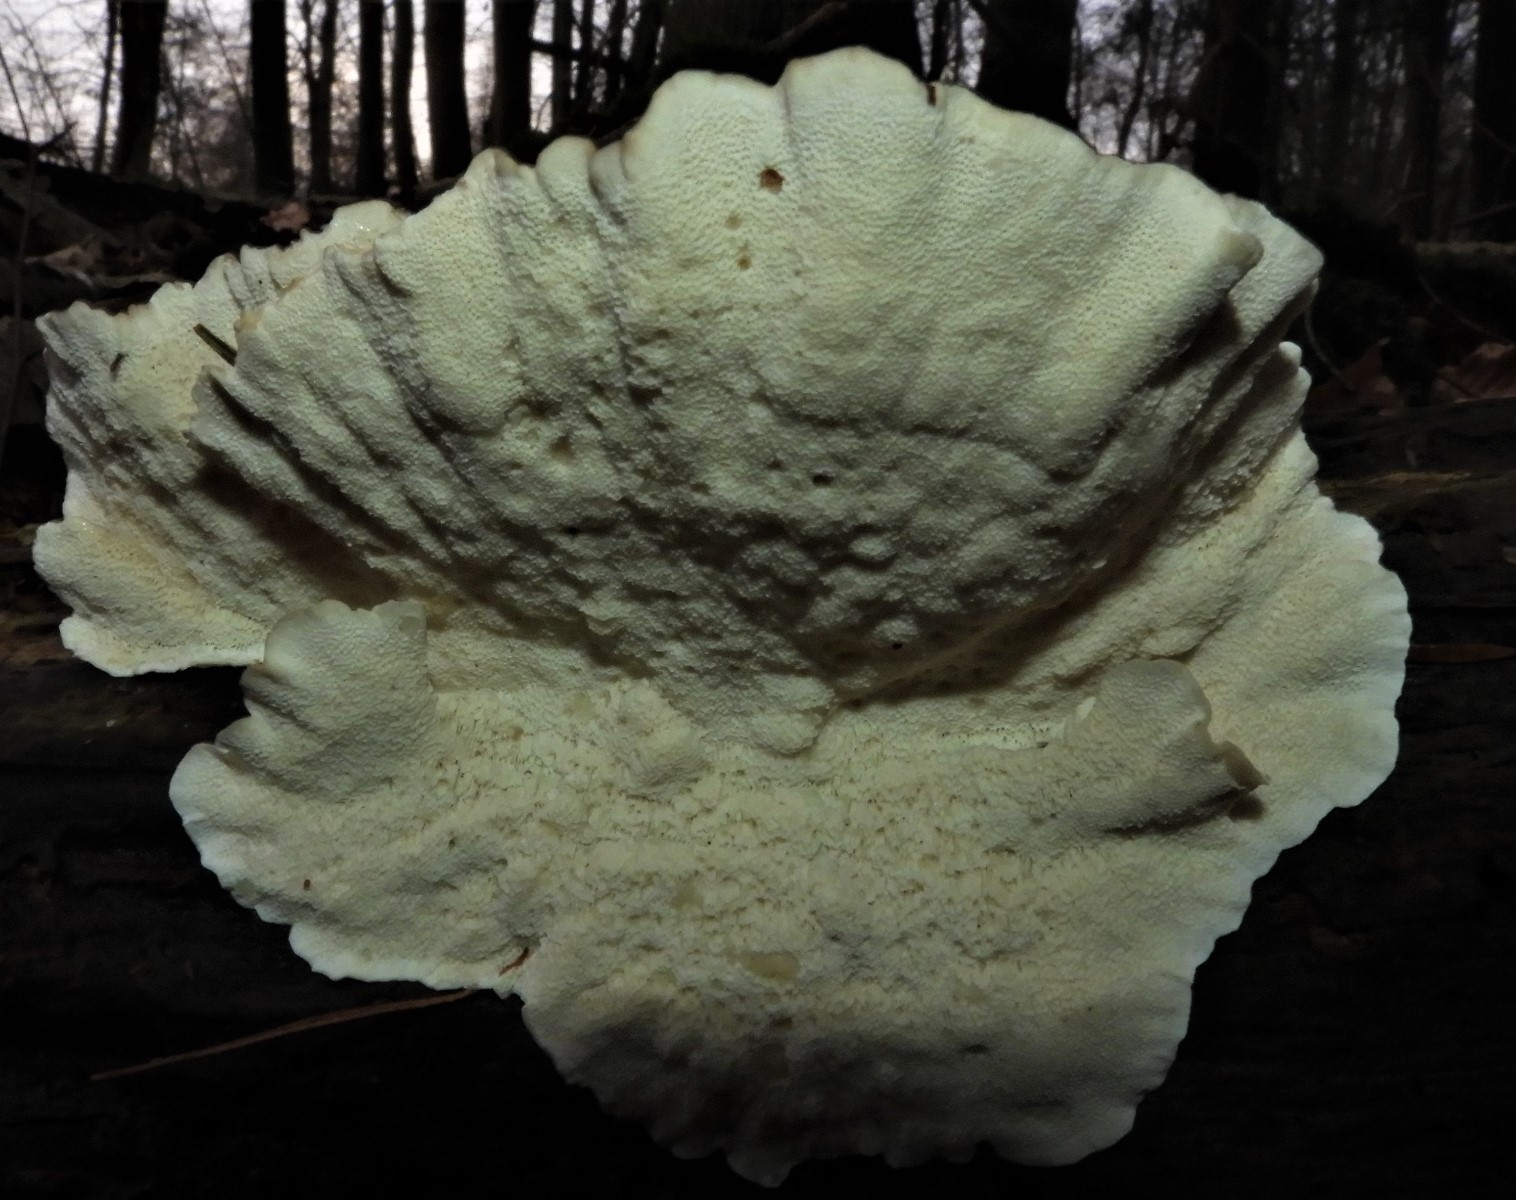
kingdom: Fungi
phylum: Basidiomycota
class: Agaricomycetes
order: Polyporales
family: Polyporaceae
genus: Trametes
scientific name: Trametes ochracea
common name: bæltet læderporesvamp
